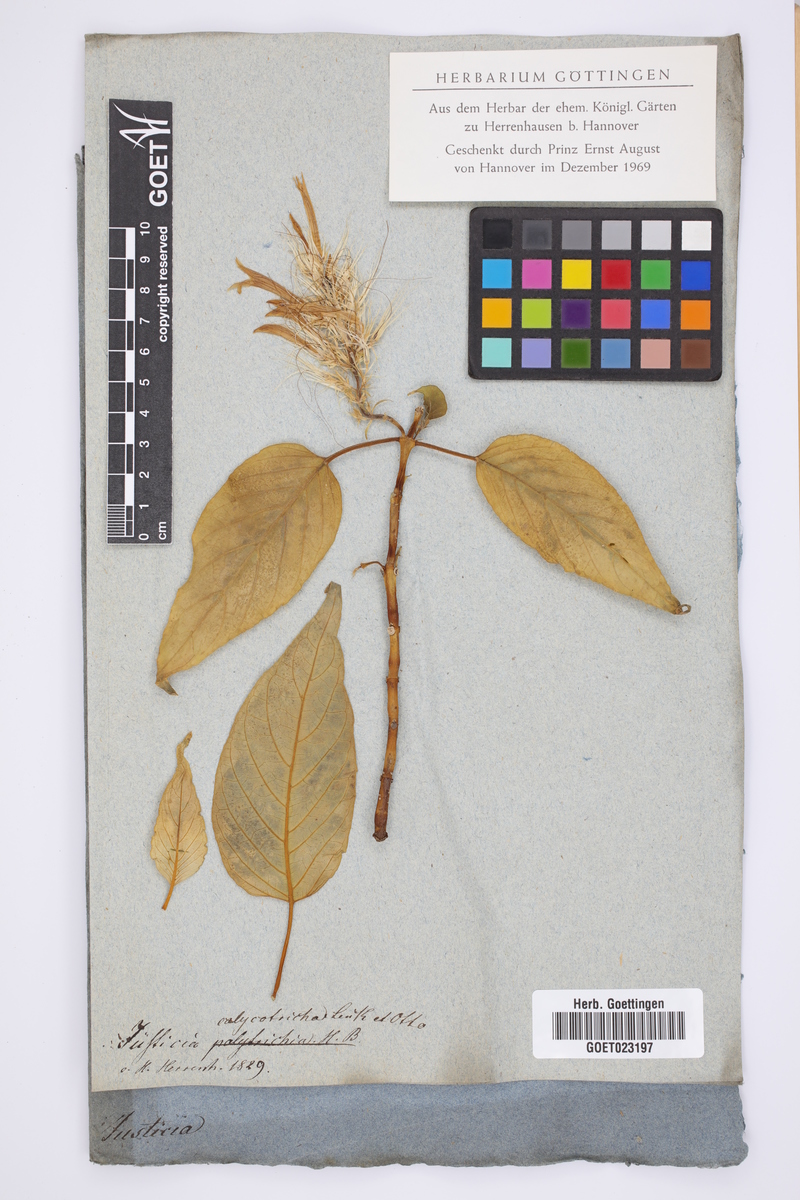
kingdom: Plantae
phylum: Tracheophyta
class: Magnoliopsida
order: Lamiales
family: Acanthaceae
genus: Schaueria
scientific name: Schaueria calytricha
